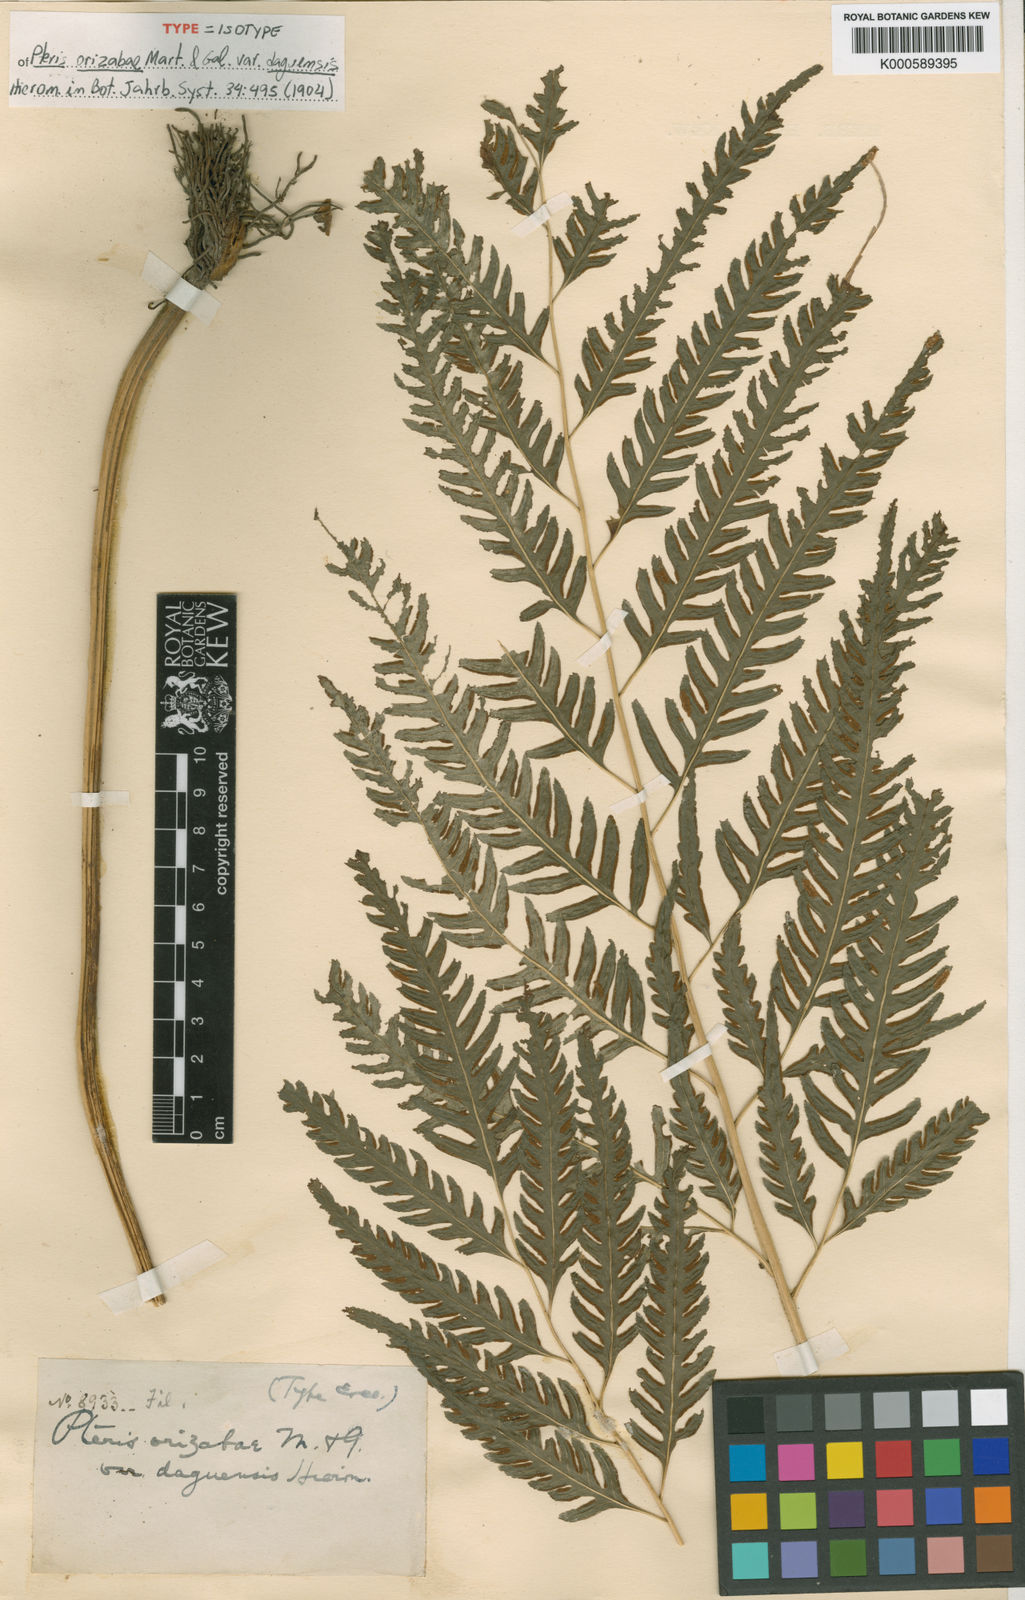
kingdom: Plantae
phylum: Tracheophyta
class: Polypodiopsida
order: Polypodiales
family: Pteridaceae
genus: Pteris
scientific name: Pteris orizabae
